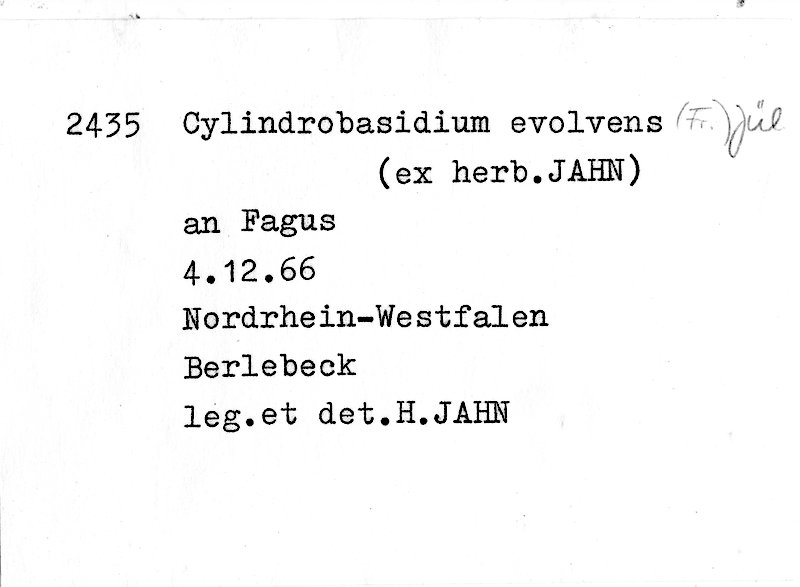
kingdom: Fungi
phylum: Basidiomycota
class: Agaricomycetes
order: Agaricales
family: Physalacriaceae
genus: Cylindrobasidium
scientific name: Cylindrobasidium evolvens
